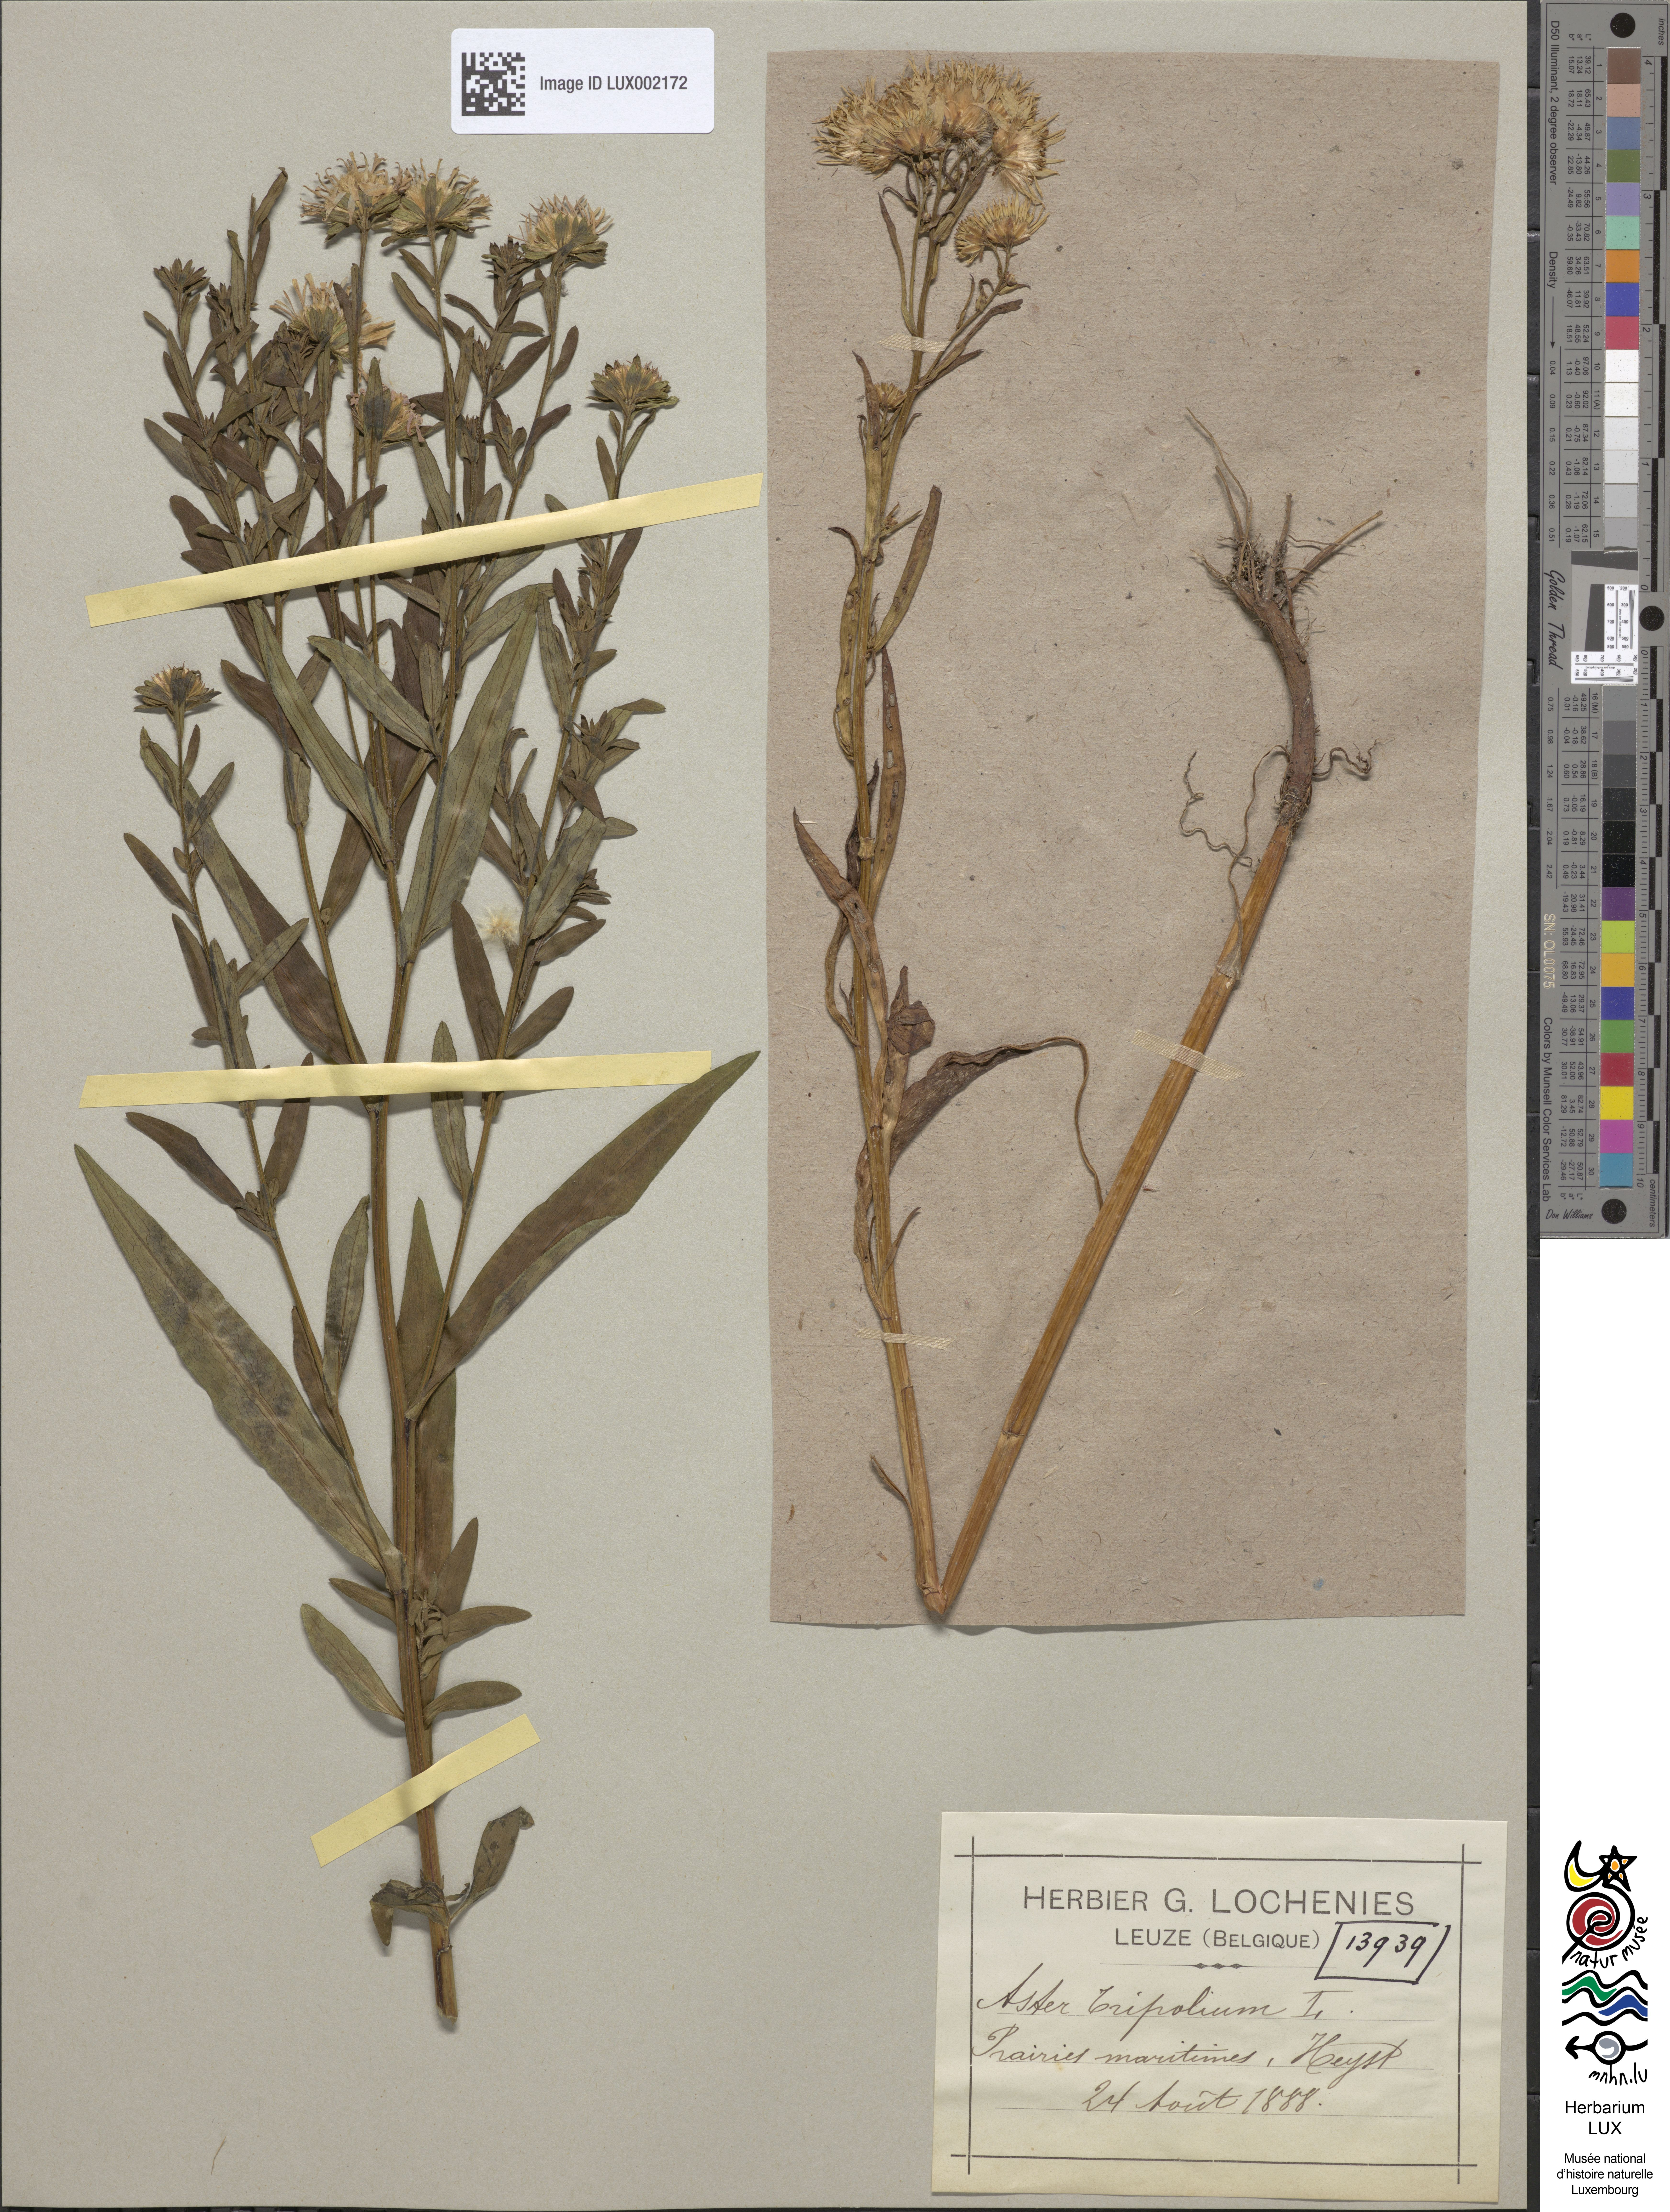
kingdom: Plantae
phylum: Tracheophyta
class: Magnoliopsida
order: Asterales
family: Asteraceae
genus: Tripolium
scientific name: Tripolium pannonicum
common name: Sea aster
